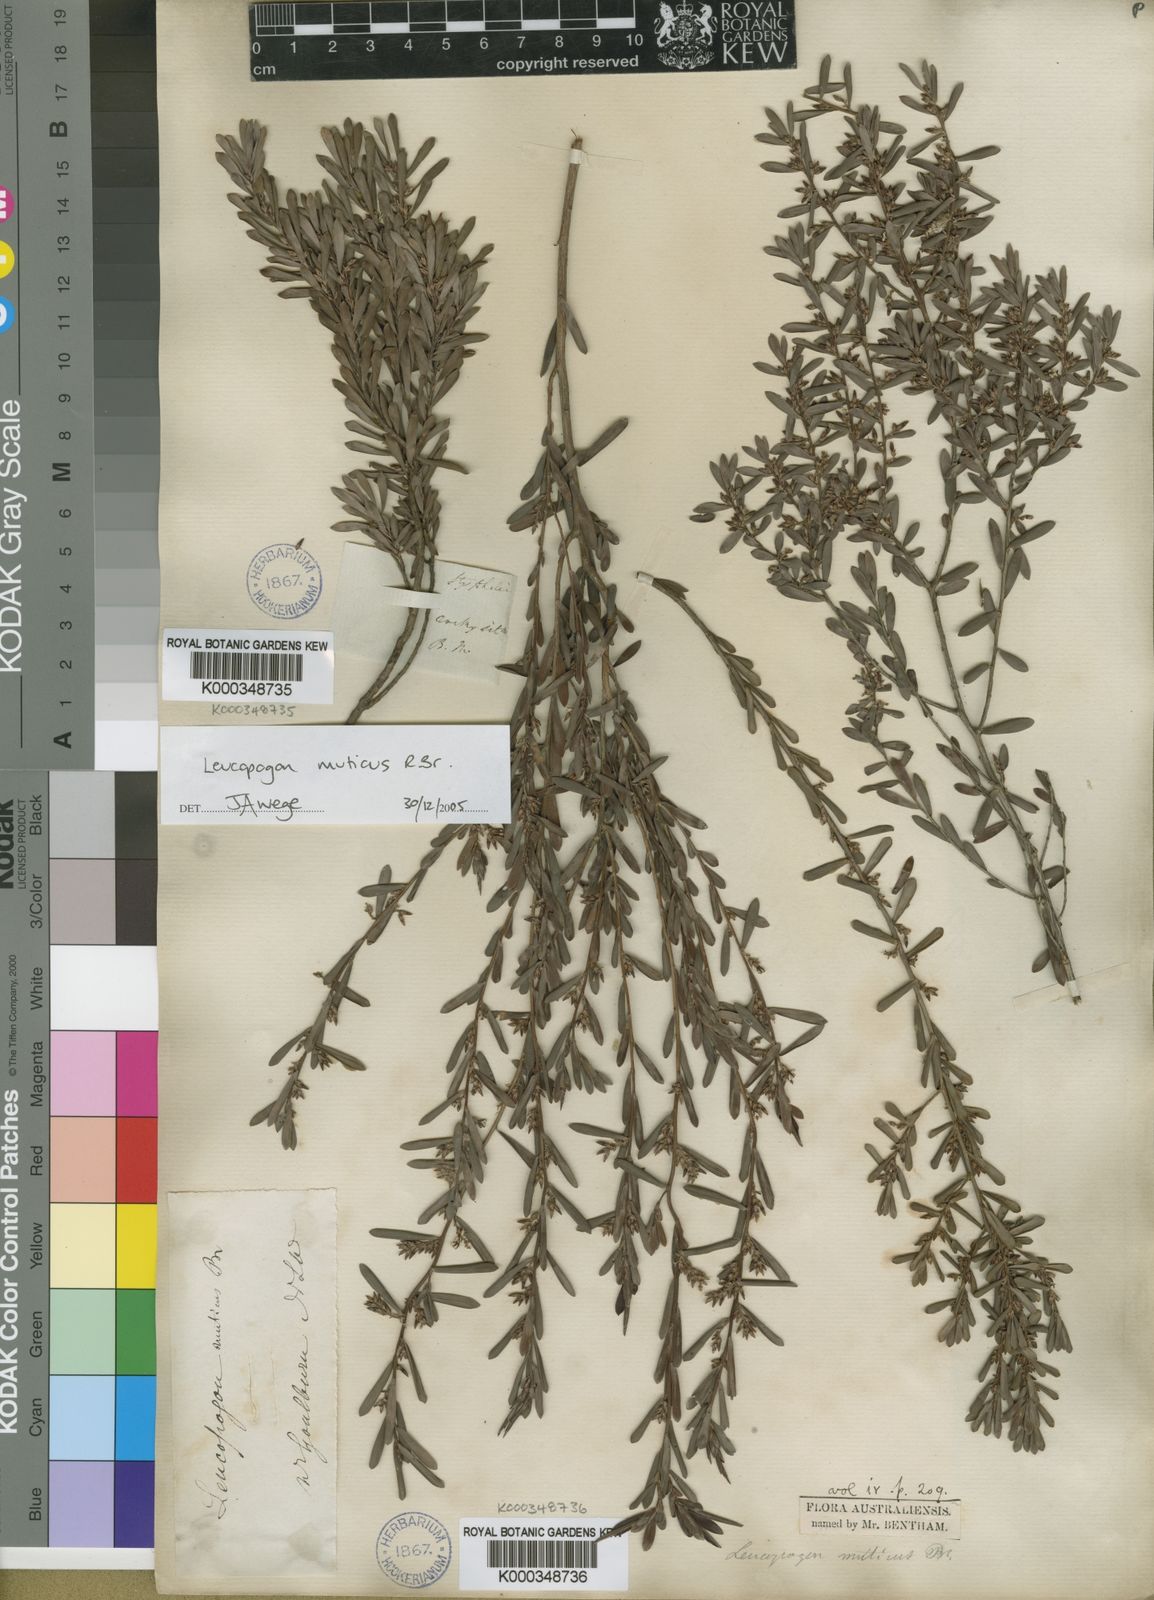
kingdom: Plantae
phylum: Tracheophyta
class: Magnoliopsida
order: Ericales
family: Ericaceae
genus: Styphelia
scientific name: Styphelia mutica
